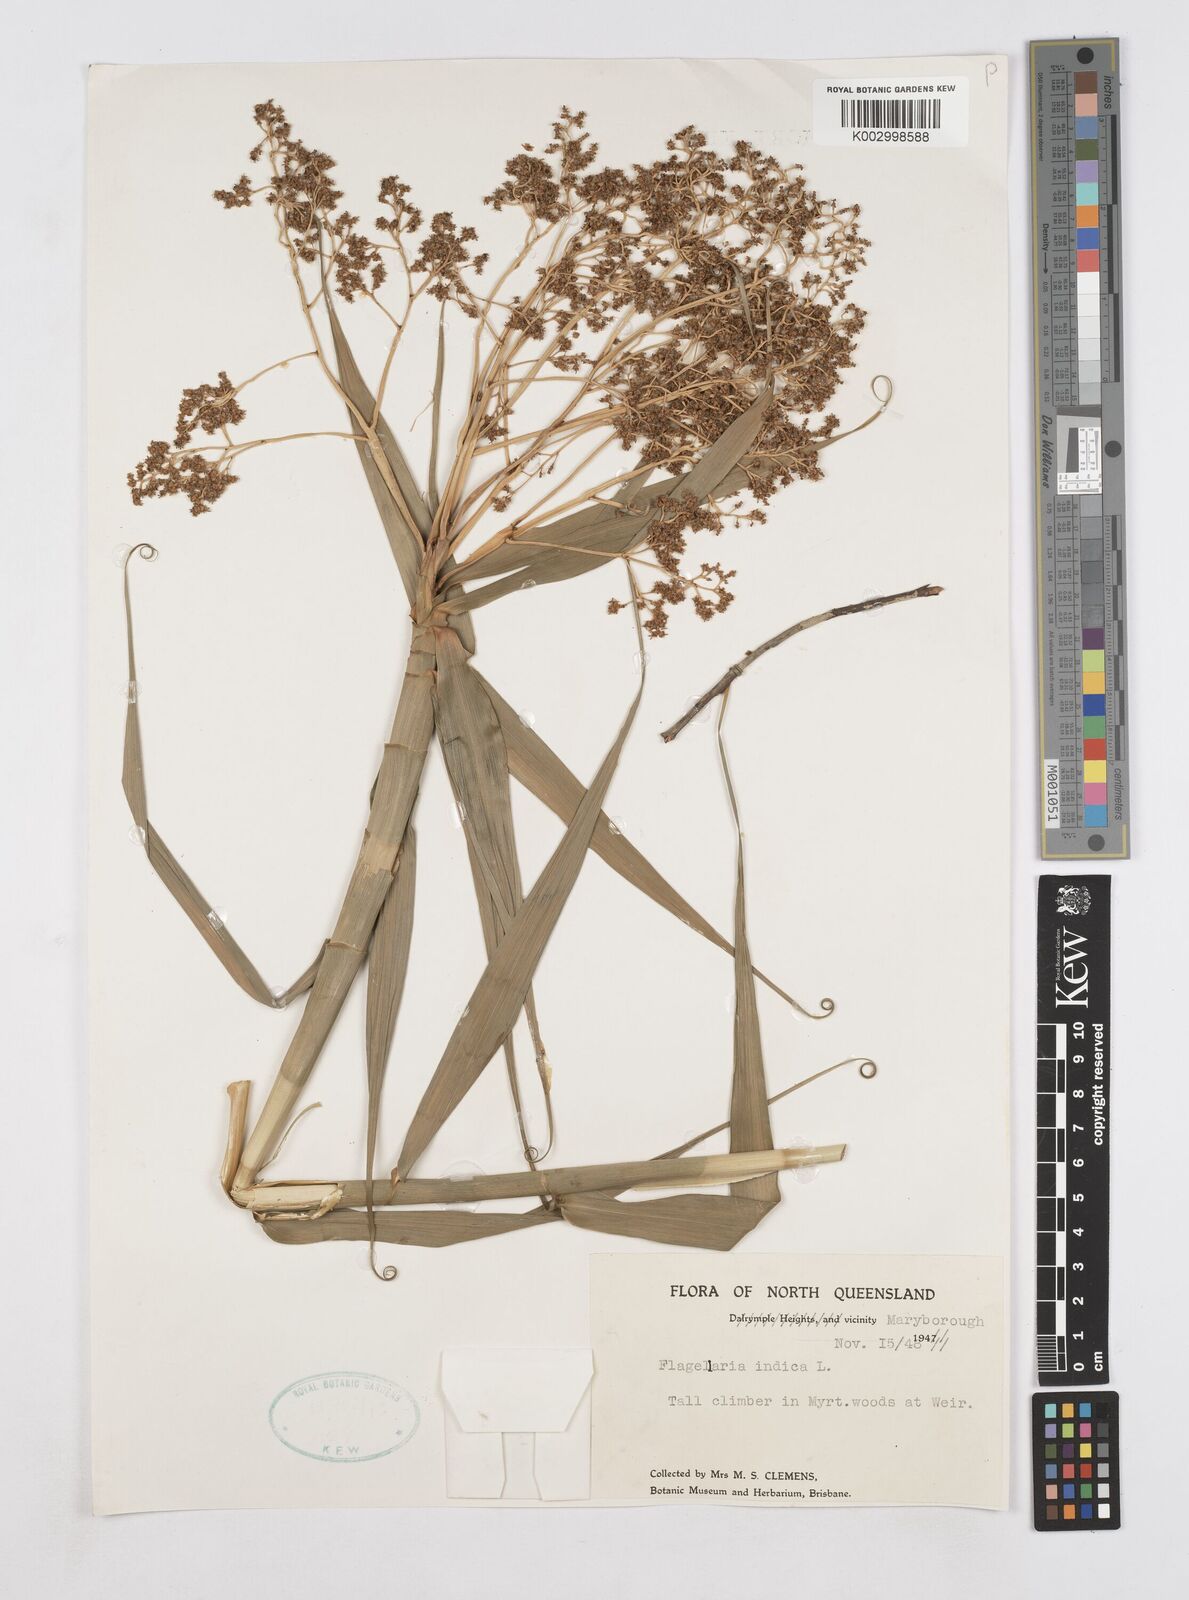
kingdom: Plantae
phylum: Tracheophyta
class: Liliopsida
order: Poales
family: Flagellariaceae
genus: Flagellaria
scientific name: Flagellaria indica
